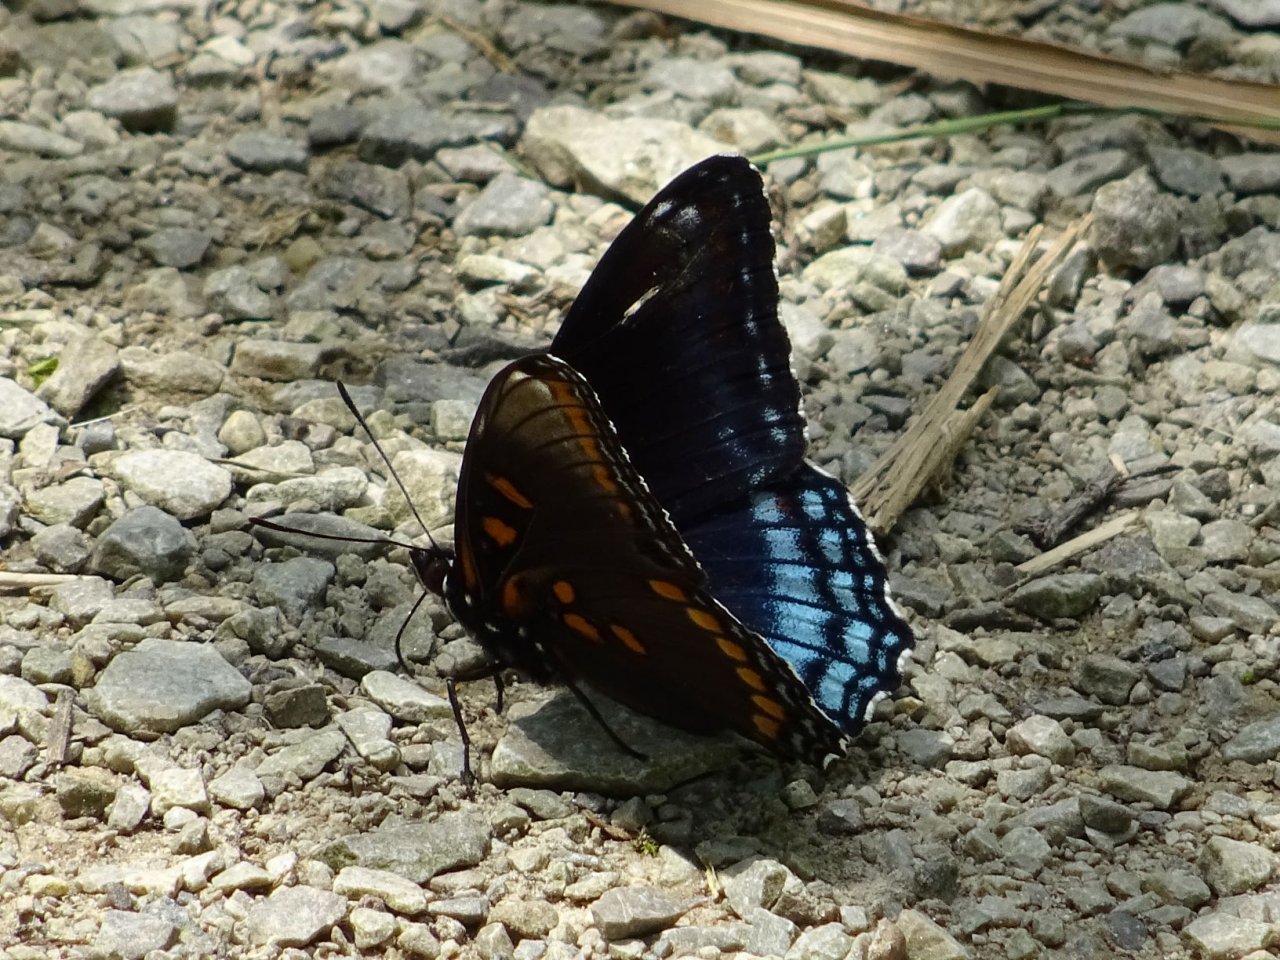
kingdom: Animalia
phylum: Arthropoda
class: Insecta
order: Lepidoptera
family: Nymphalidae
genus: Limenitis
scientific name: Limenitis astyanax
